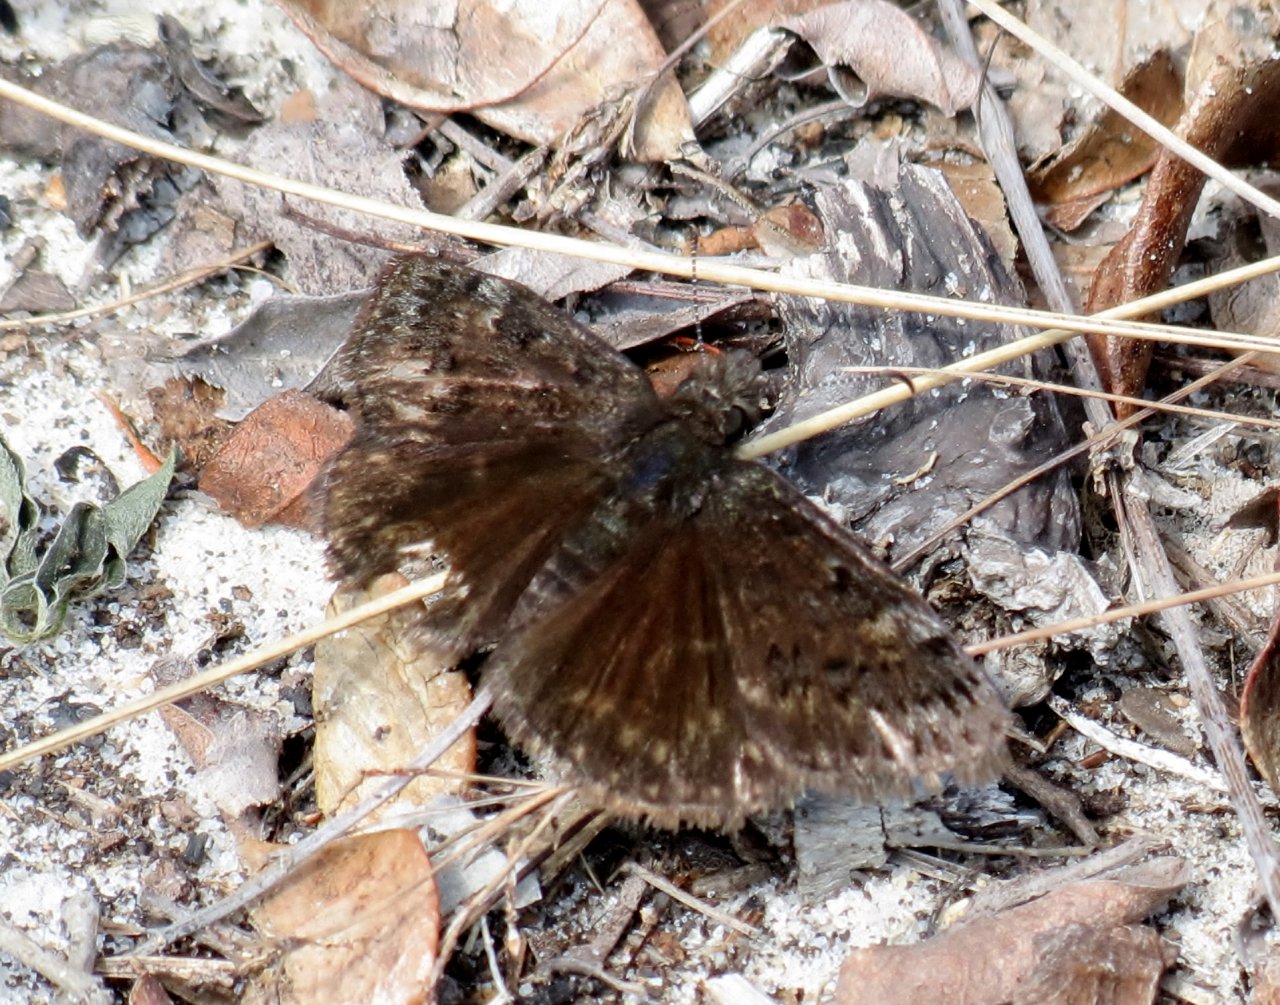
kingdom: Animalia
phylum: Arthropoda
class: Insecta
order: Lepidoptera
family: Hesperiidae
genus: Erynnis
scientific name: Erynnis brizo
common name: Sleepy Duskywing
